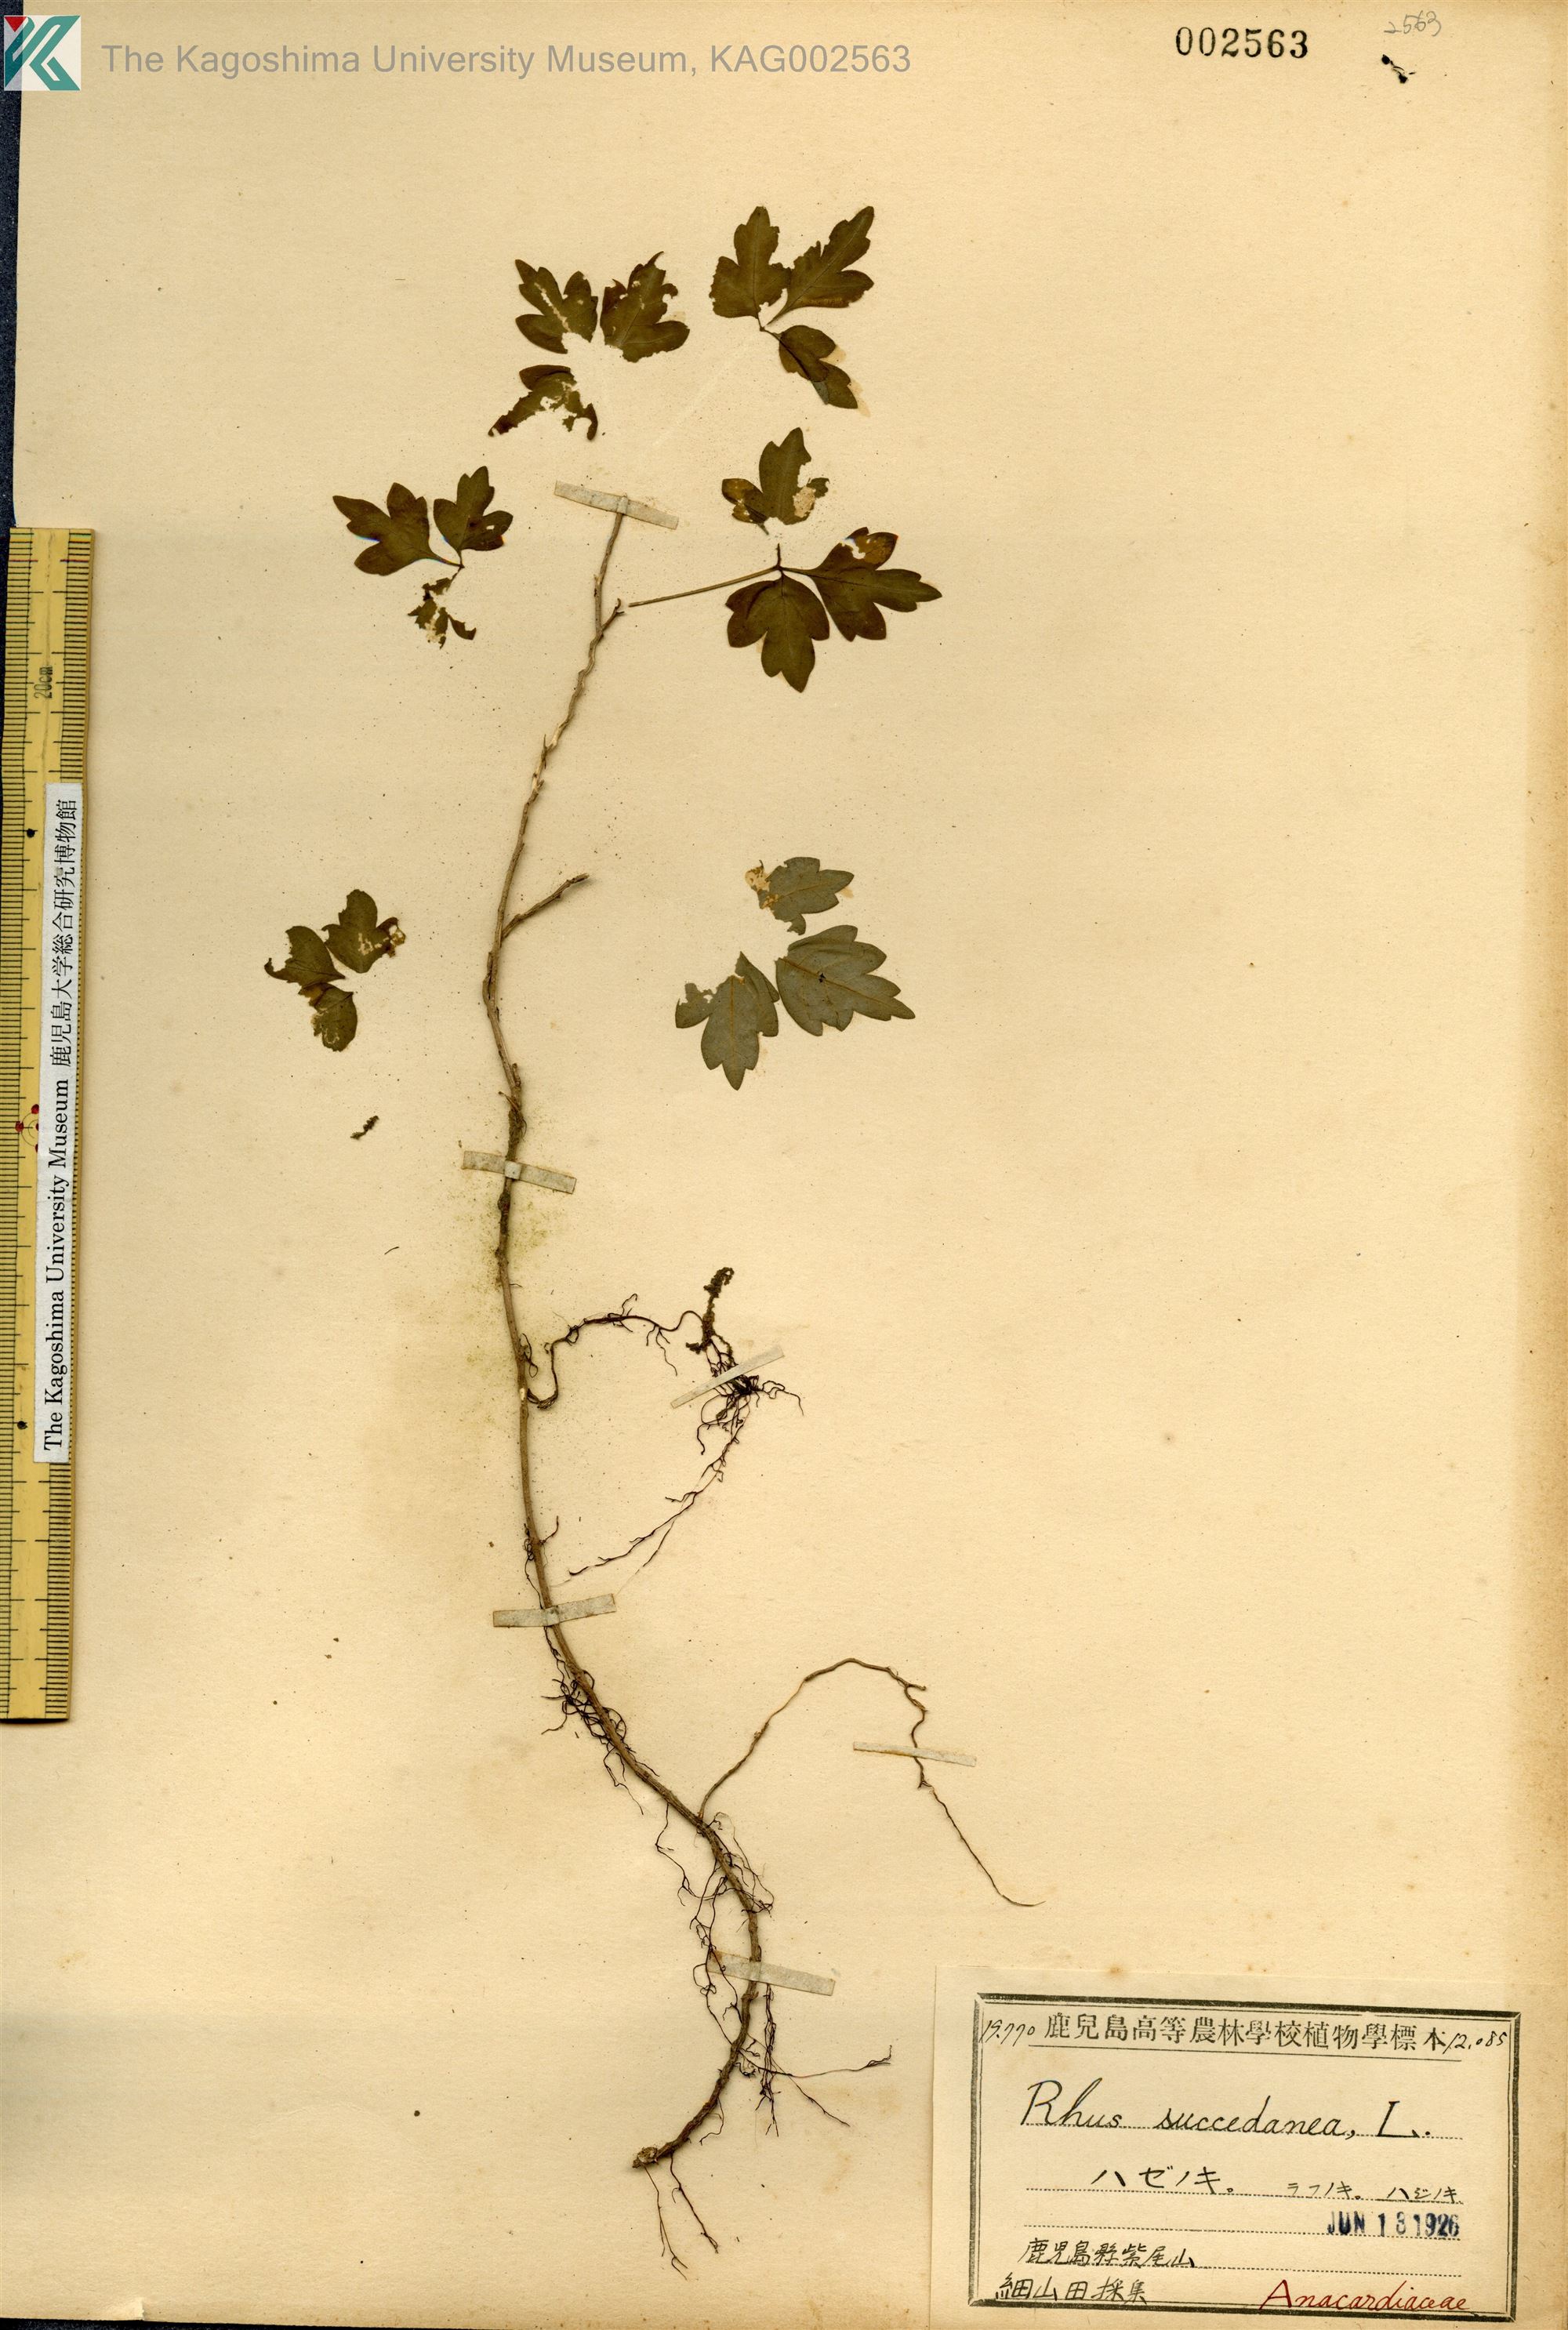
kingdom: Plantae
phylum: Tracheophyta
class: Magnoliopsida
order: Sapindales
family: Anacardiaceae
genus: Toxicodendron
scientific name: Toxicodendron succedaneum
